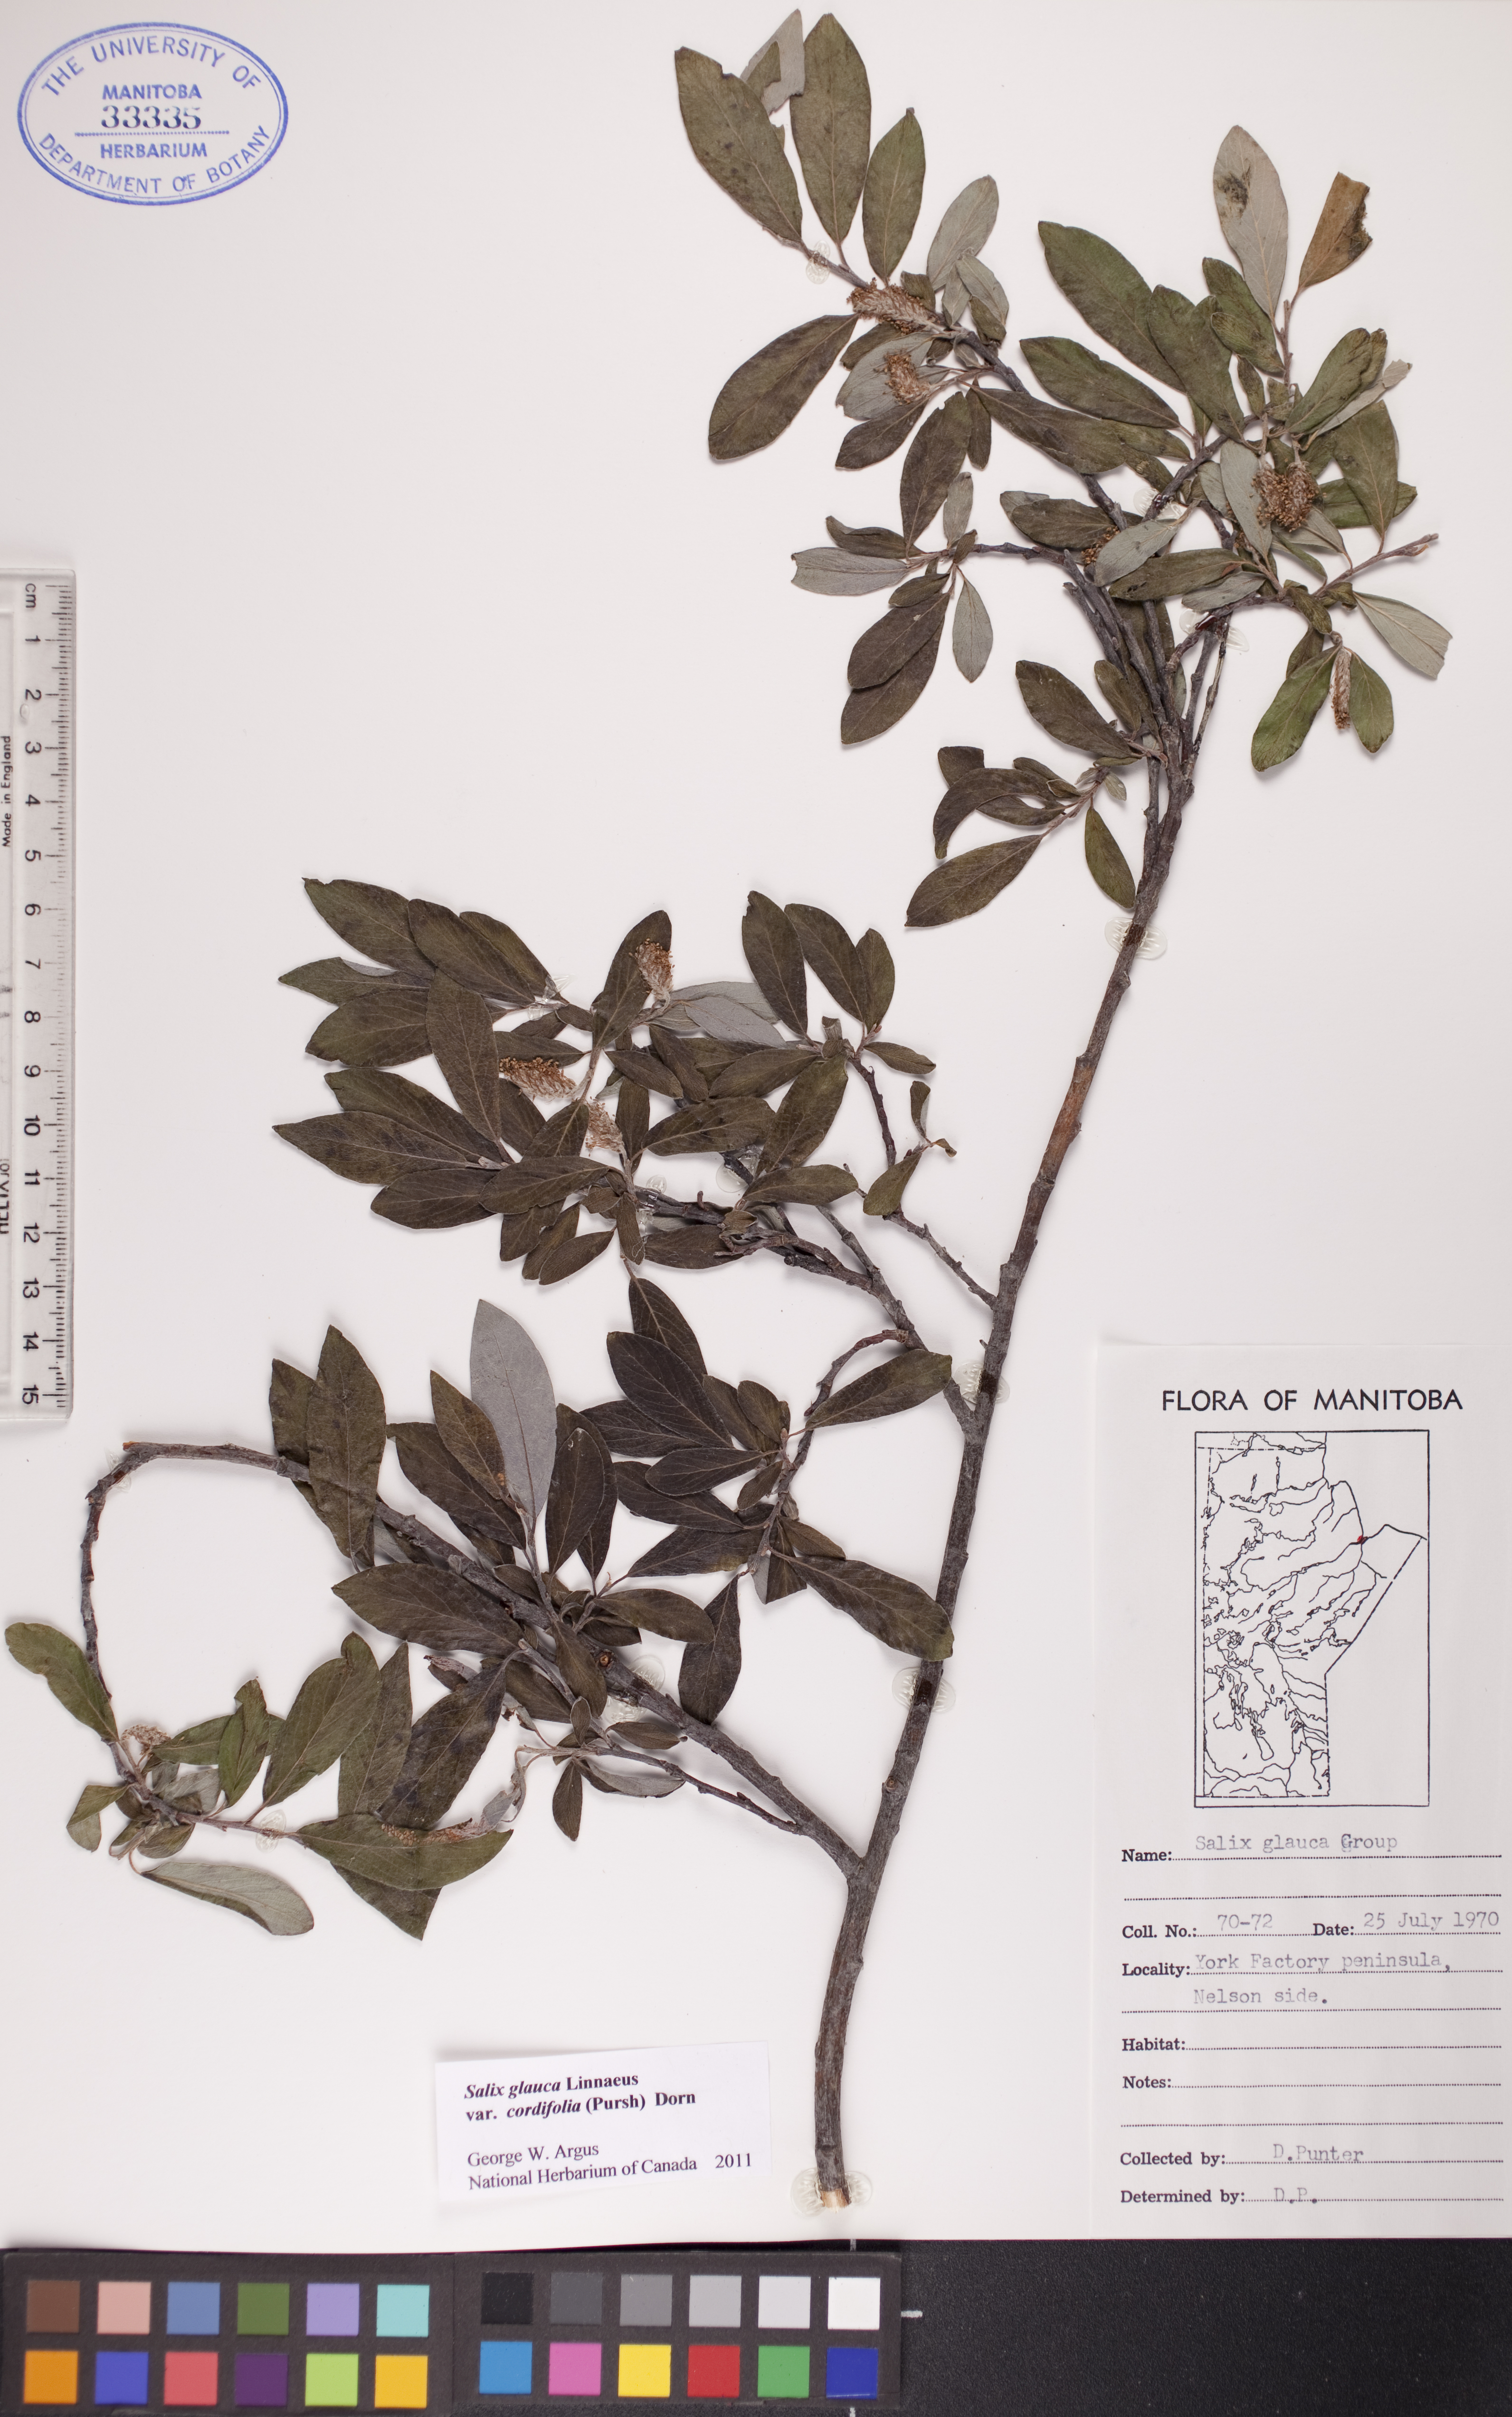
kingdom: Plantae
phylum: Tracheophyta
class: Magnoliopsida
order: Malpighiales
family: Salicaceae
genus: Salix
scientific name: Salix glauca
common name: Glaucous willow
